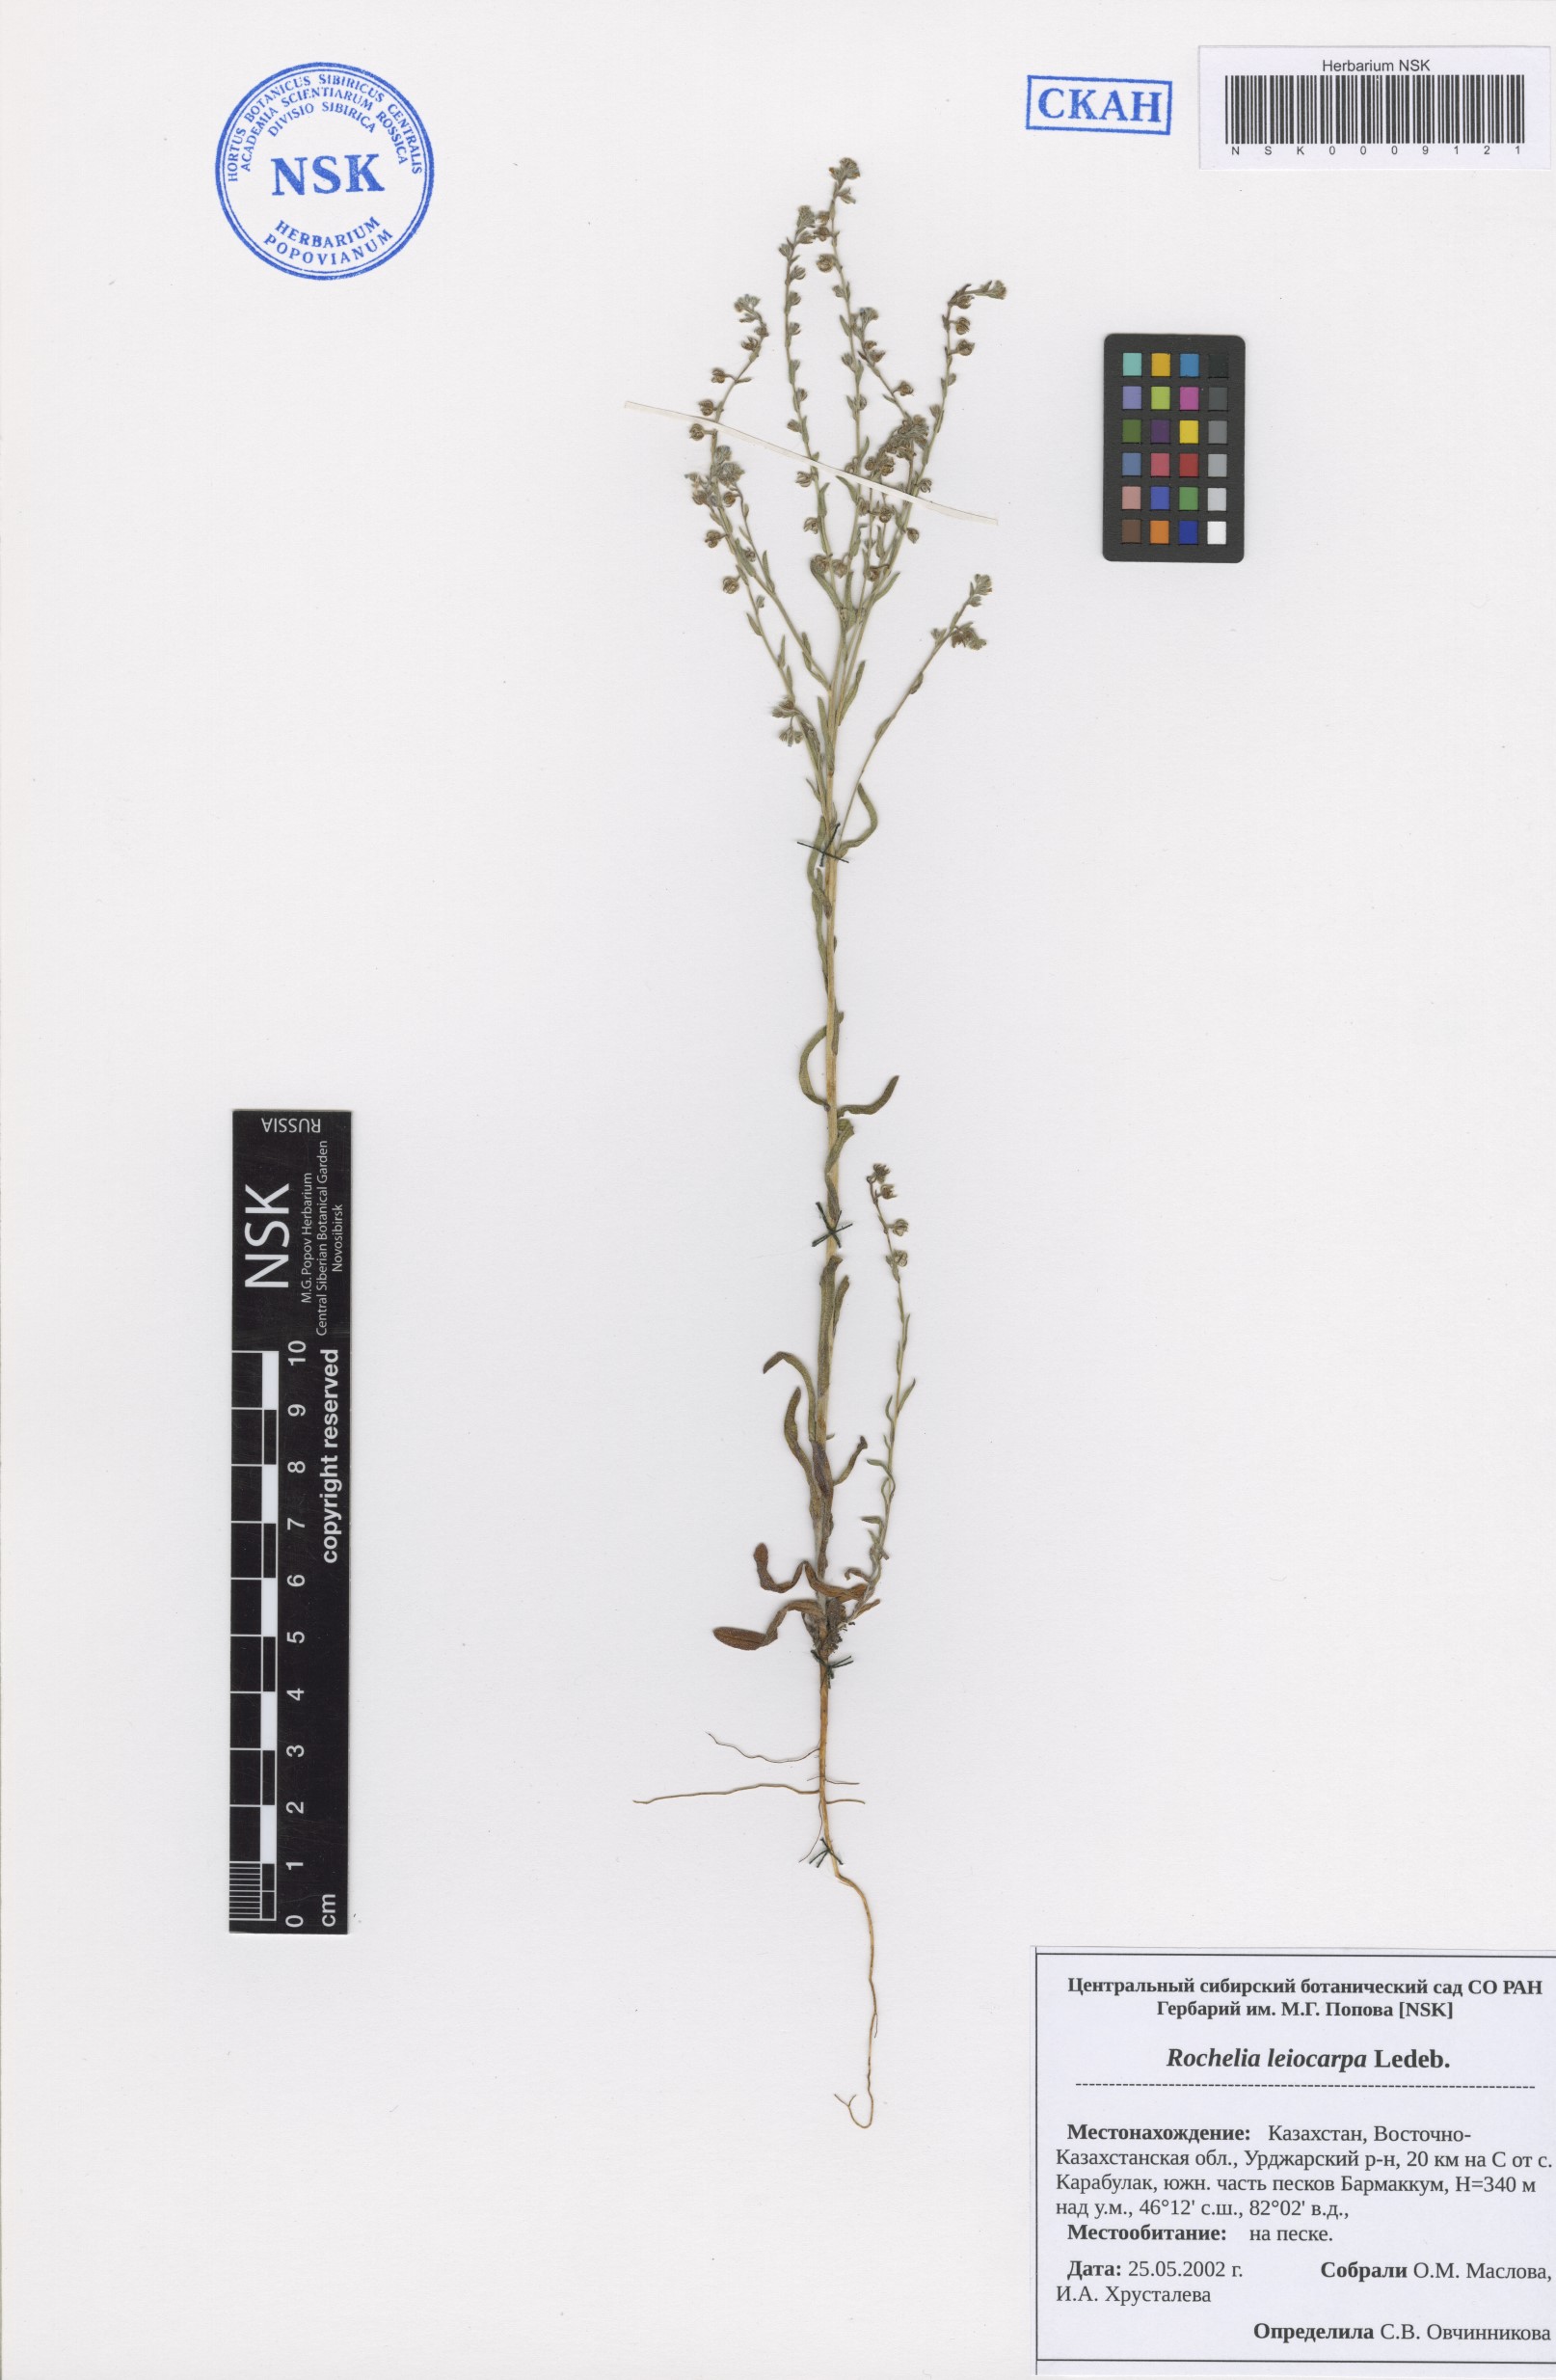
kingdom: Plantae
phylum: Tracheophyta
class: Magnoliopsida
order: Boraginales
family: Boraginaceae
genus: Rochelia
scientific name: Rochelia leiocarpa
